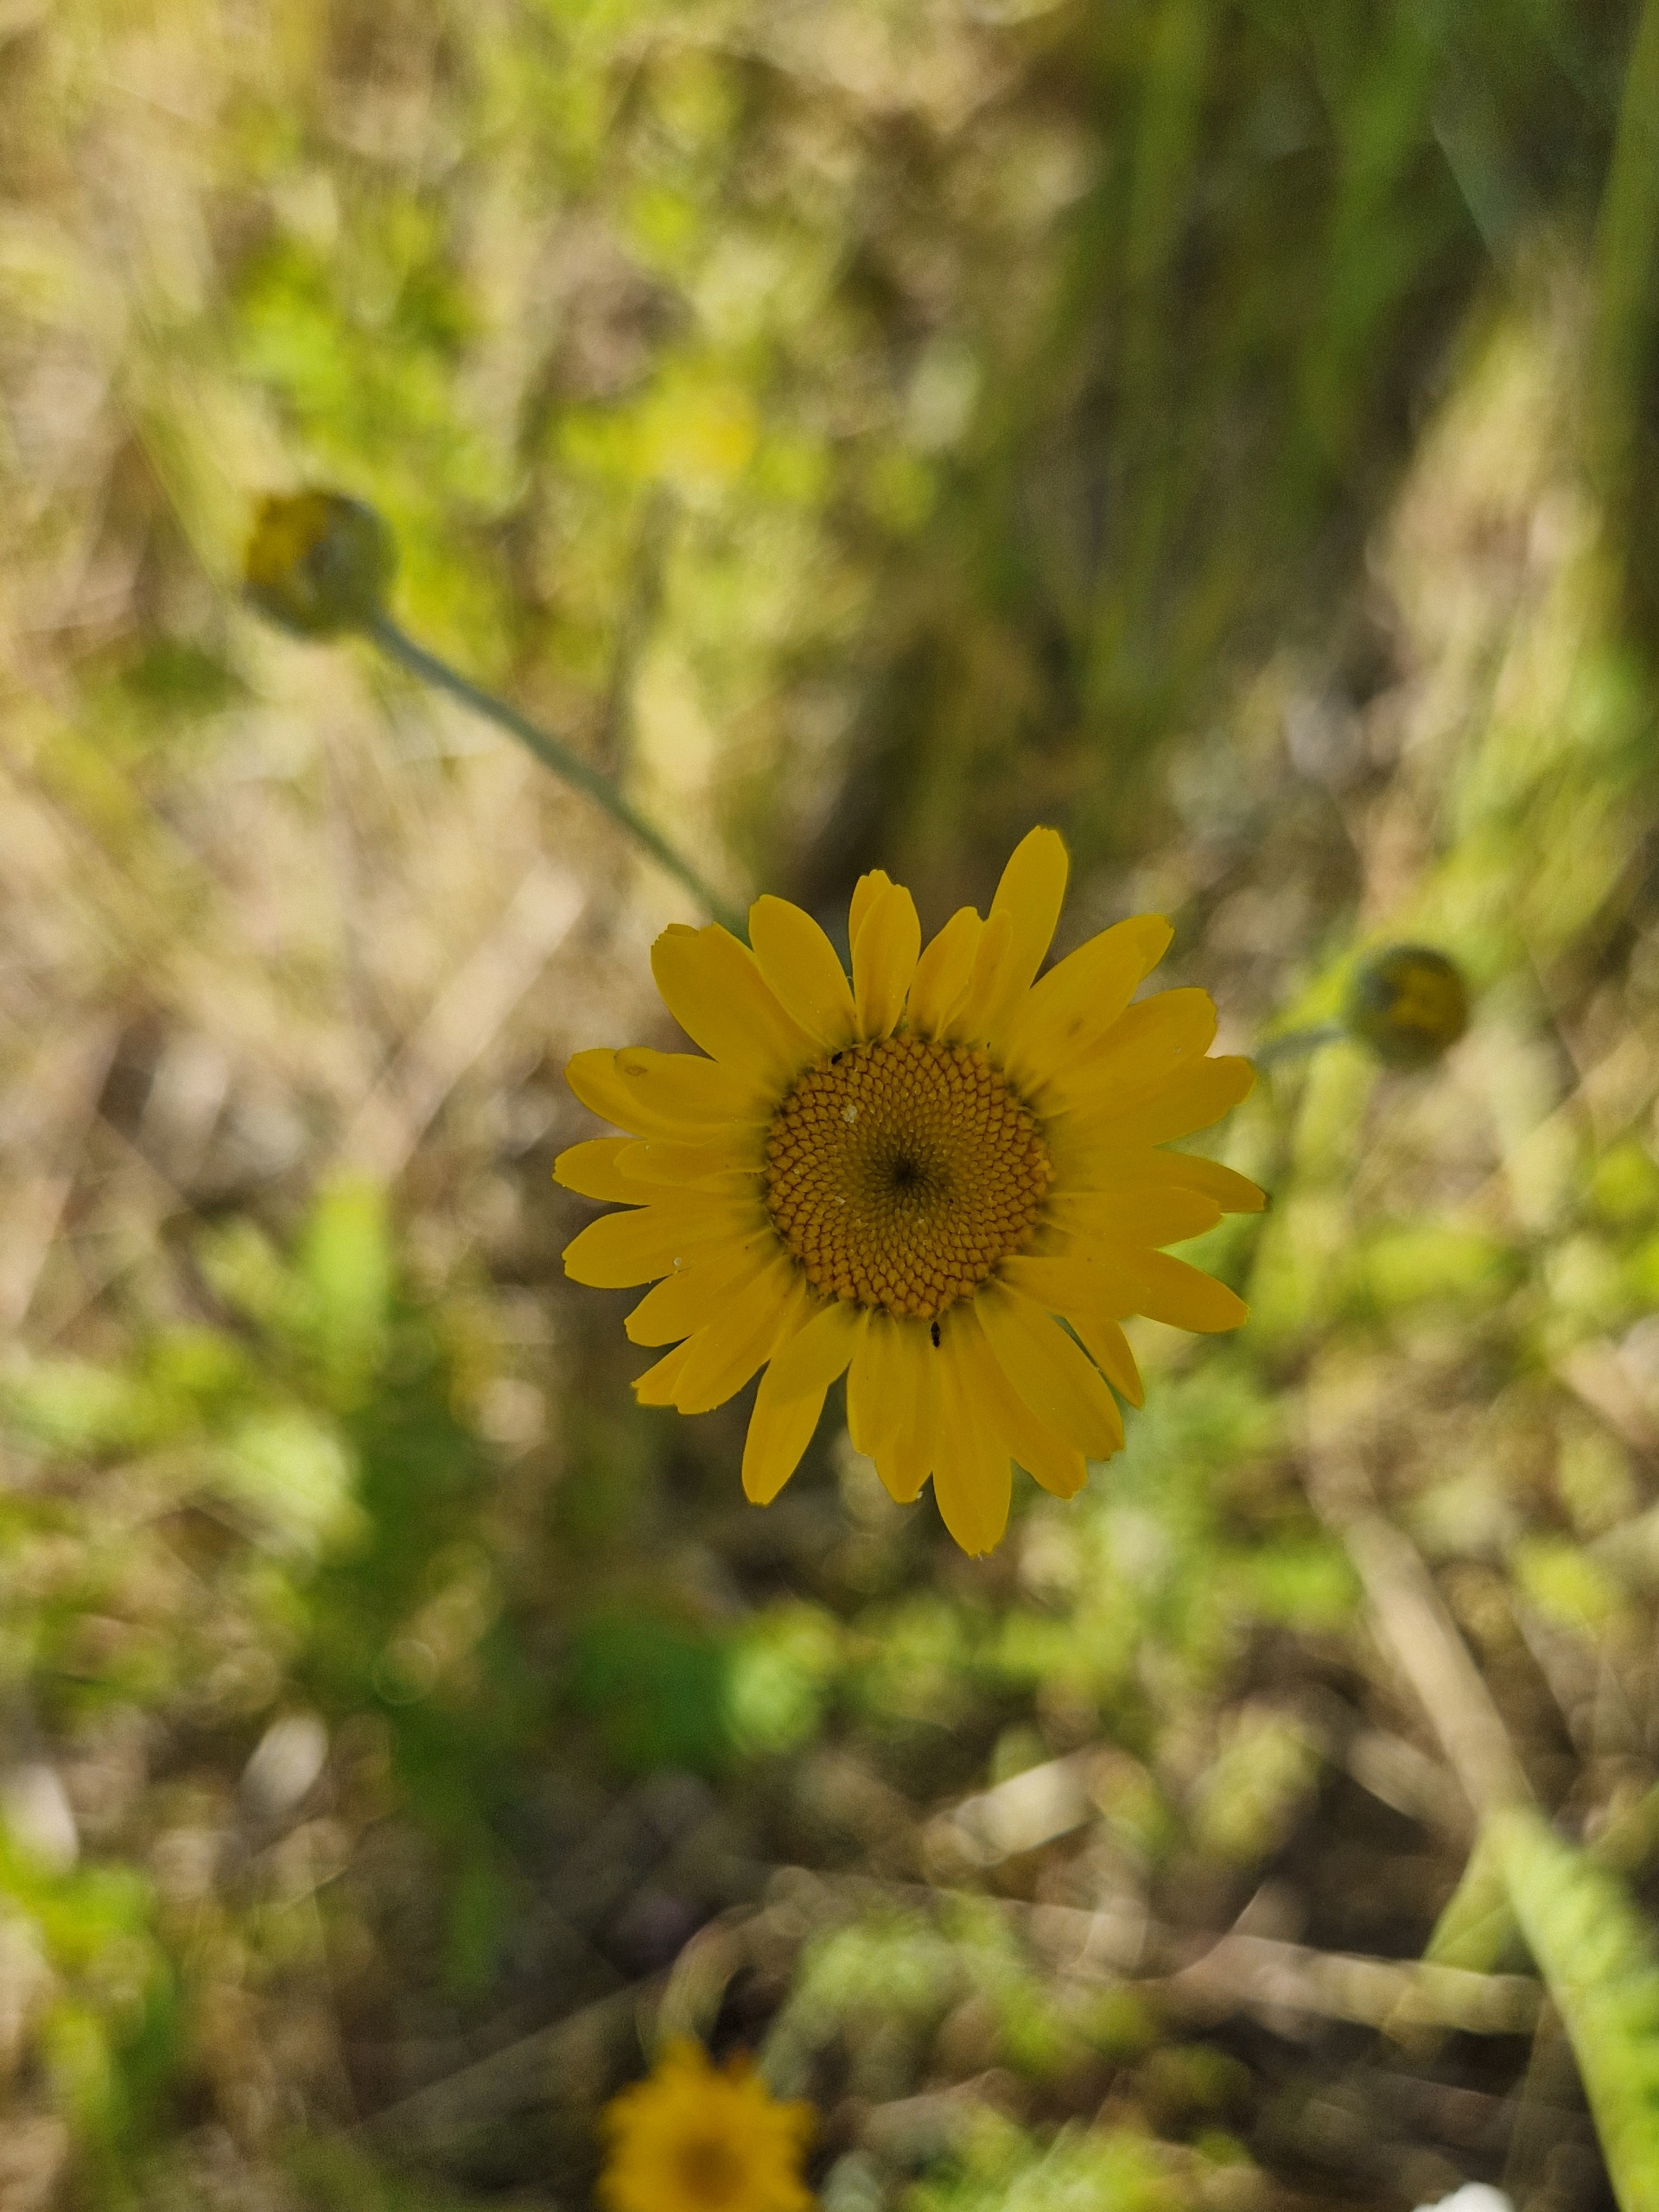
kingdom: Plantae
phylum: Tracheophyta
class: Magnoliopsida
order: Asterales
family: Asteraceae
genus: Cota
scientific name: Cota tinctoria
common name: Farve-gåseurt
